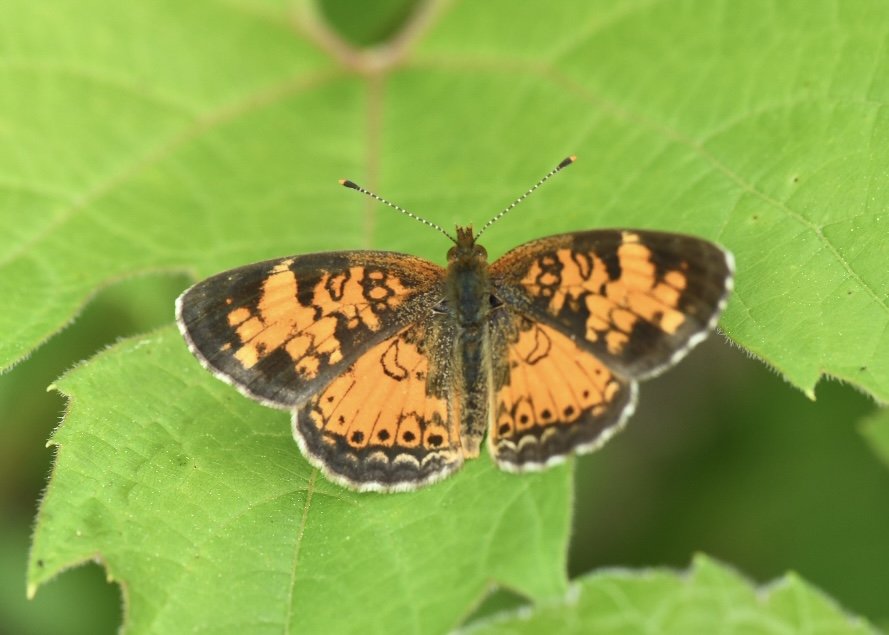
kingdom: Animalia
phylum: Arthropoda
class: Insecta
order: Lepidoptera
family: Nymphalidae
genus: Phyciodes
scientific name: Phyciodes tharos
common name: Northern Crescent
